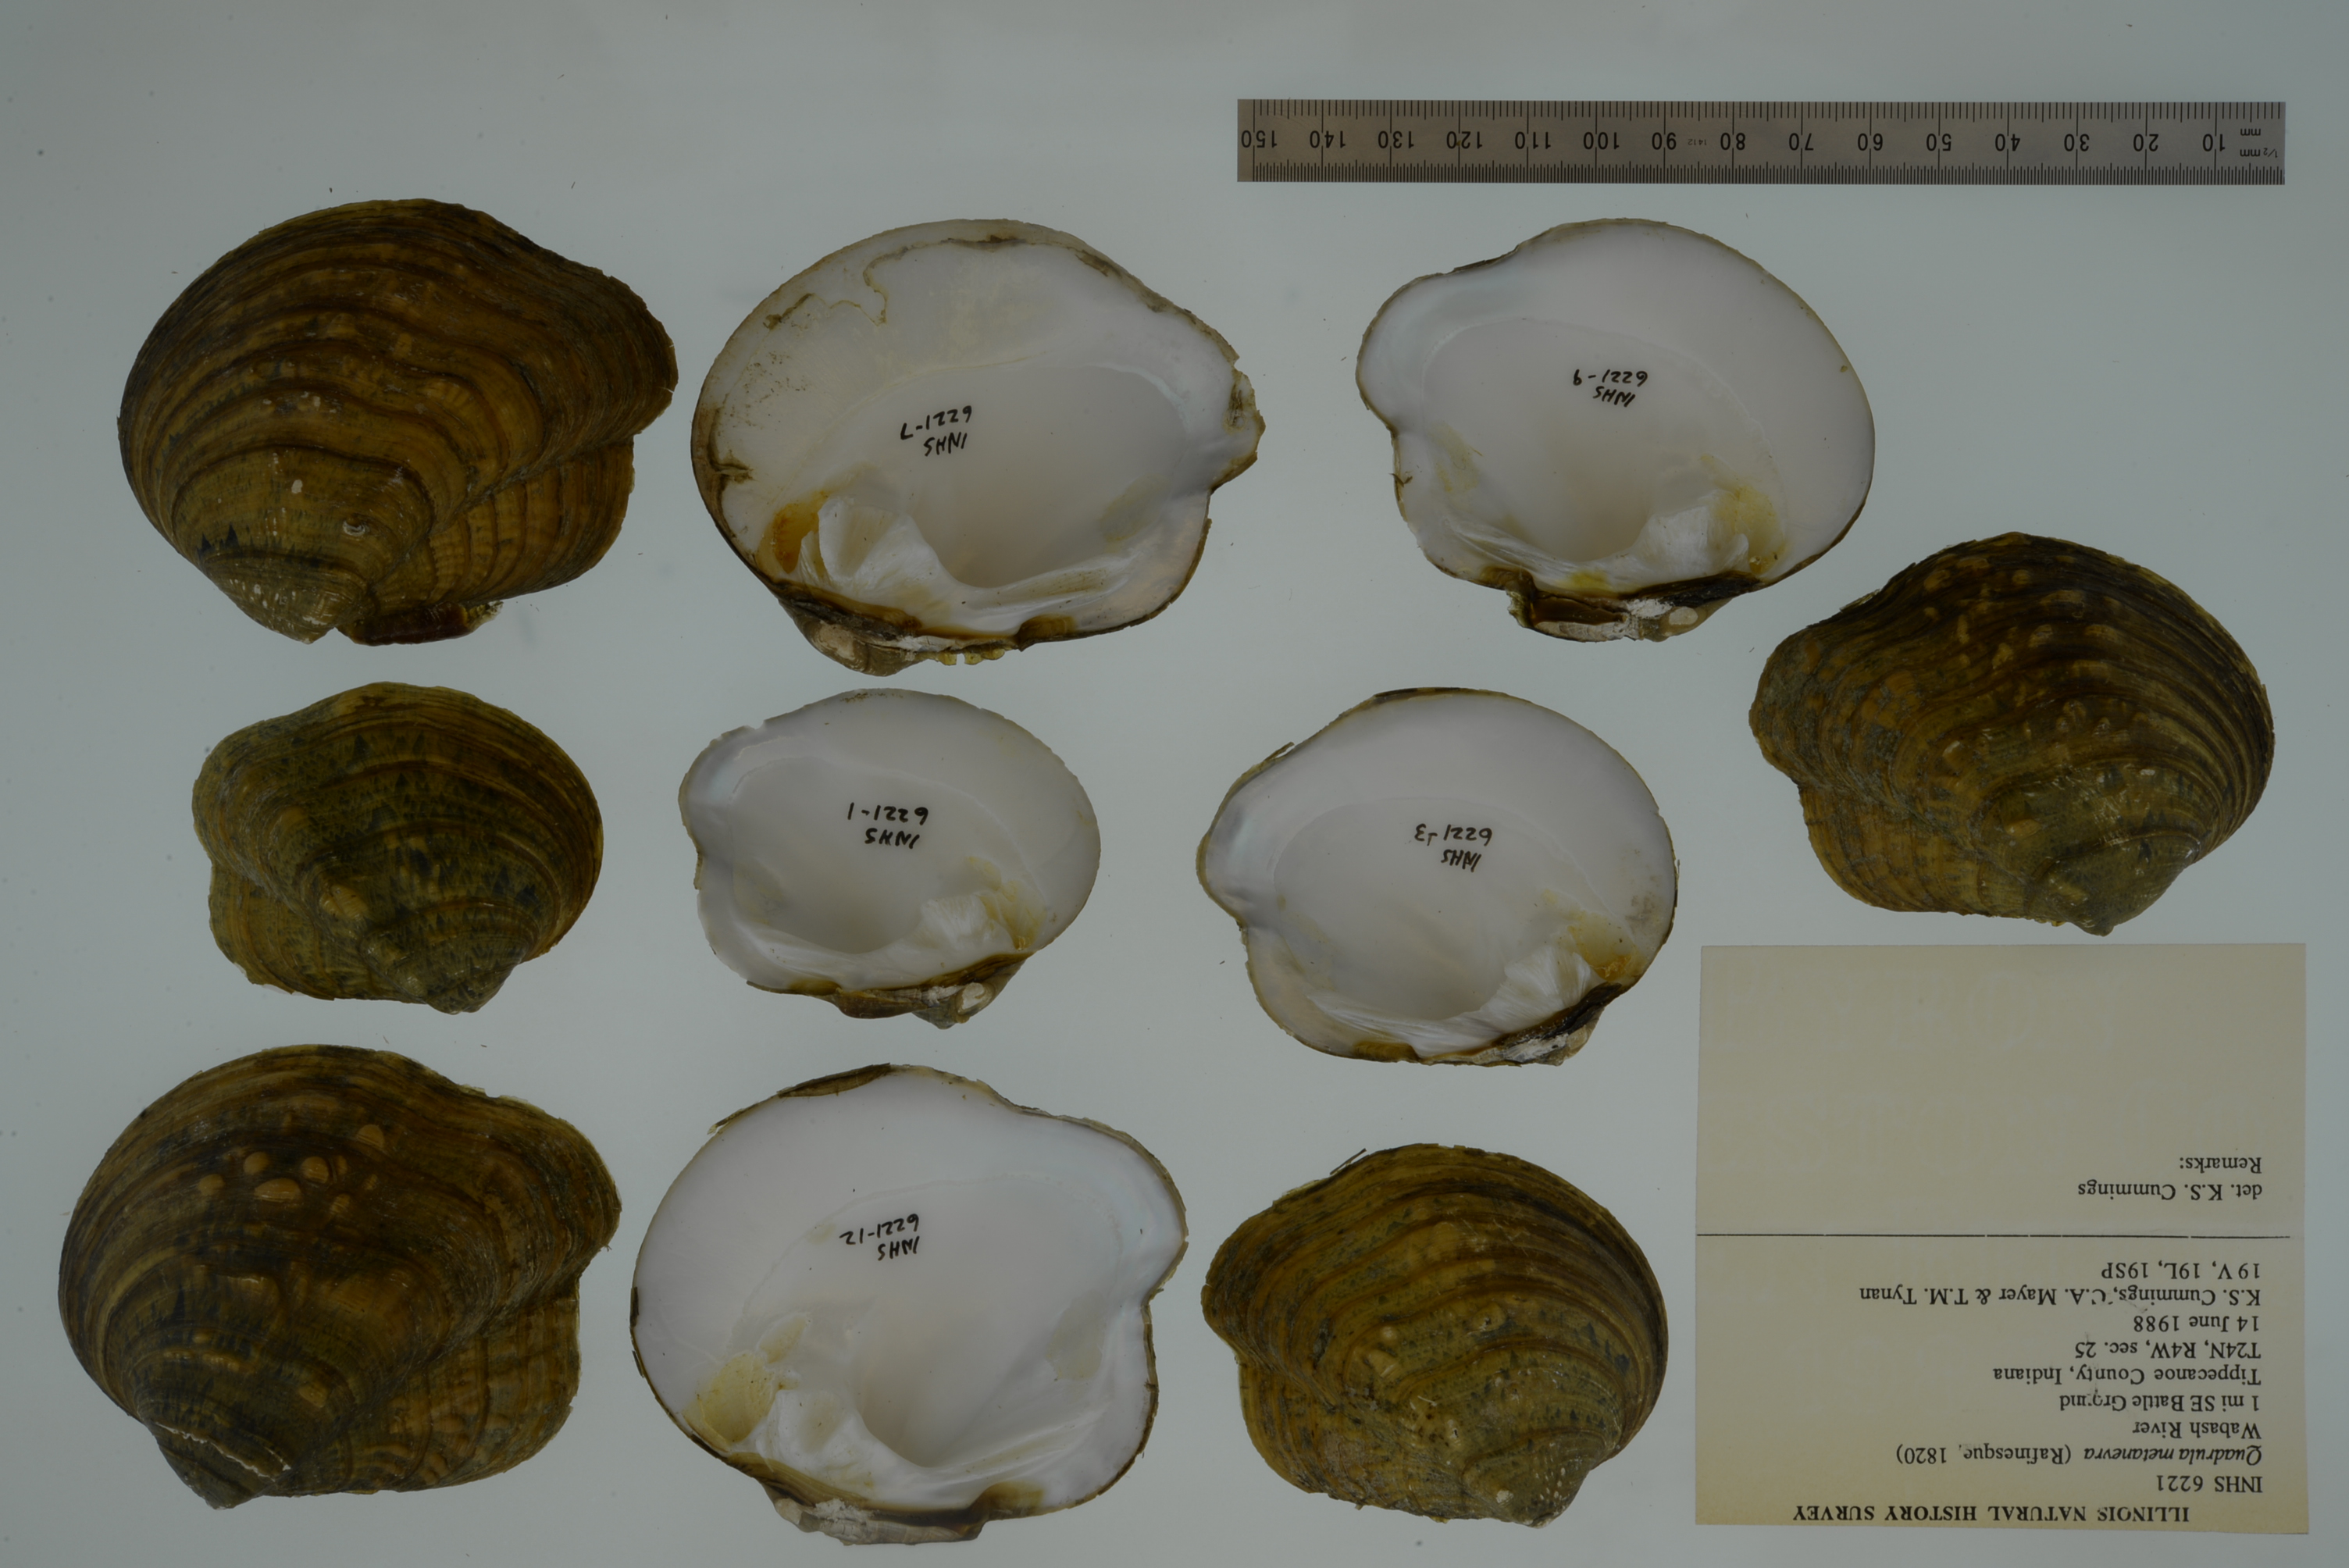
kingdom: Animalia
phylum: Mollusca
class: Bivalvia
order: Unionida
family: Unionidae
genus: Theliderma
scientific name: Theliderma metanevra
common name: Monkeyface
